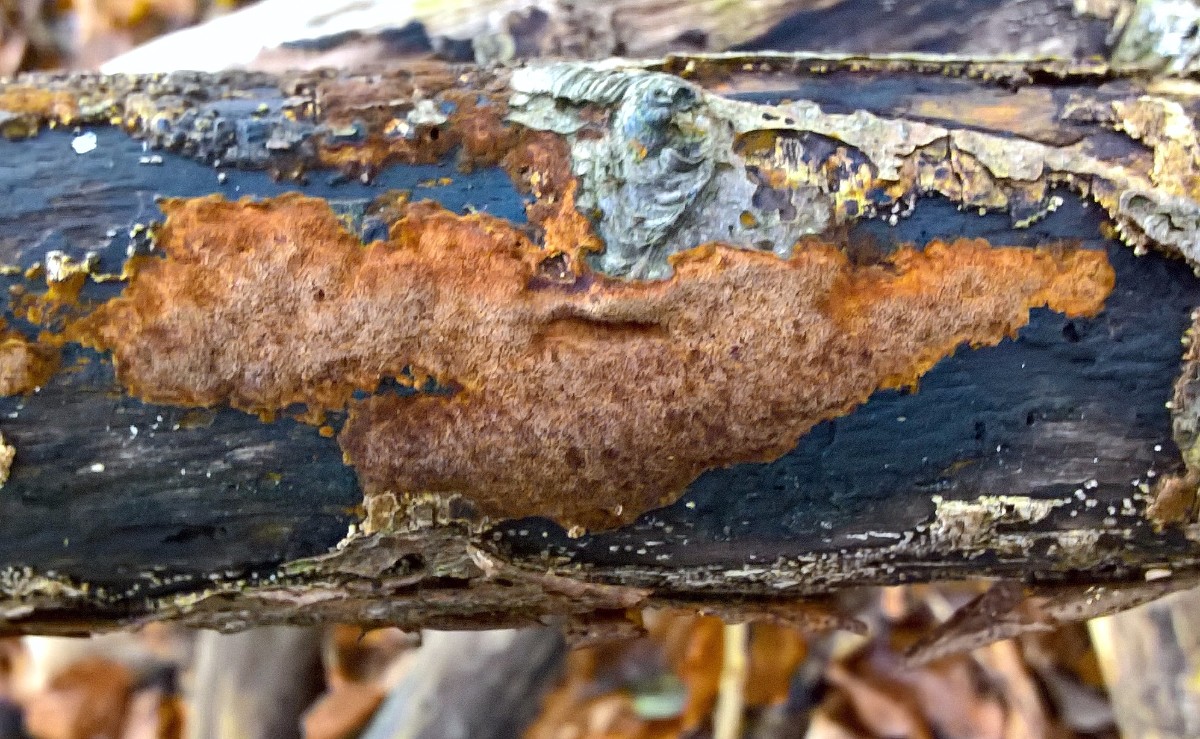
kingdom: Fungi
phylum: Basidiomycota
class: Agaricomycetes
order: Hymenochaetales
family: Hymenochaetaceae
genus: Fuscoporia
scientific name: Fuscoporia
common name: Ildporesvamp
